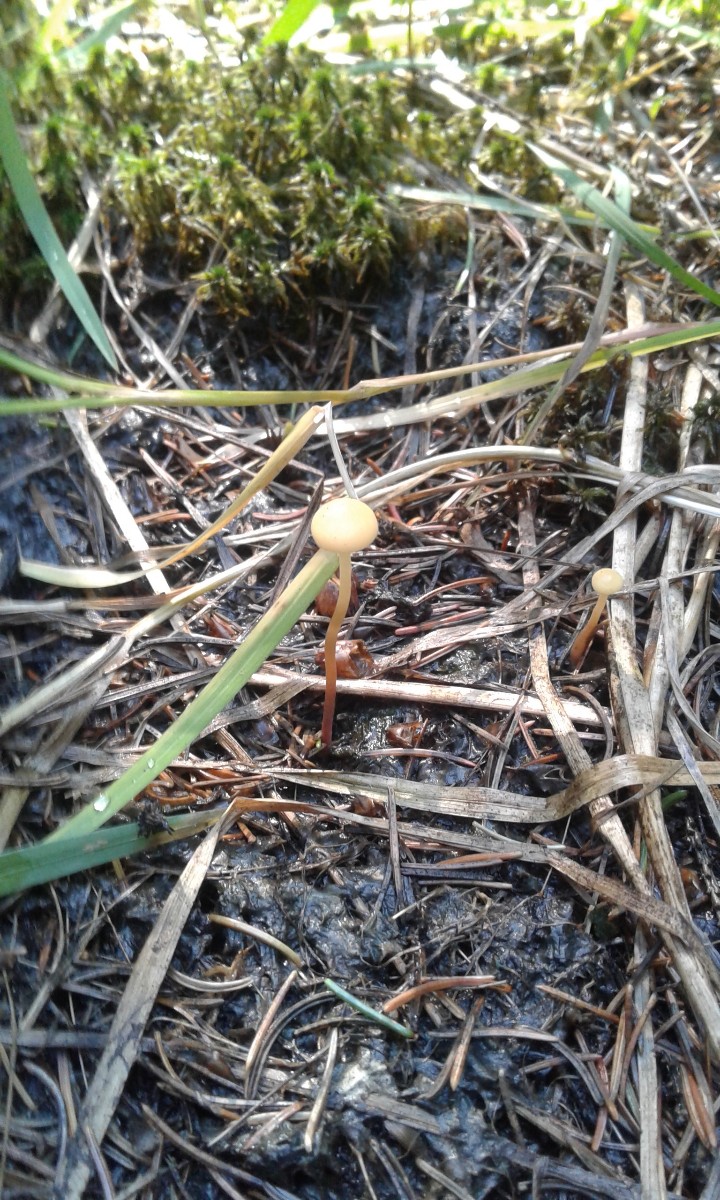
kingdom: Fungi
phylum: Basidiomycota
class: Agaricomycetes
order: Agaricales
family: Strophariaceae
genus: Hypholoma
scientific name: Hypholoma elongatum
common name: slank svovlhat
